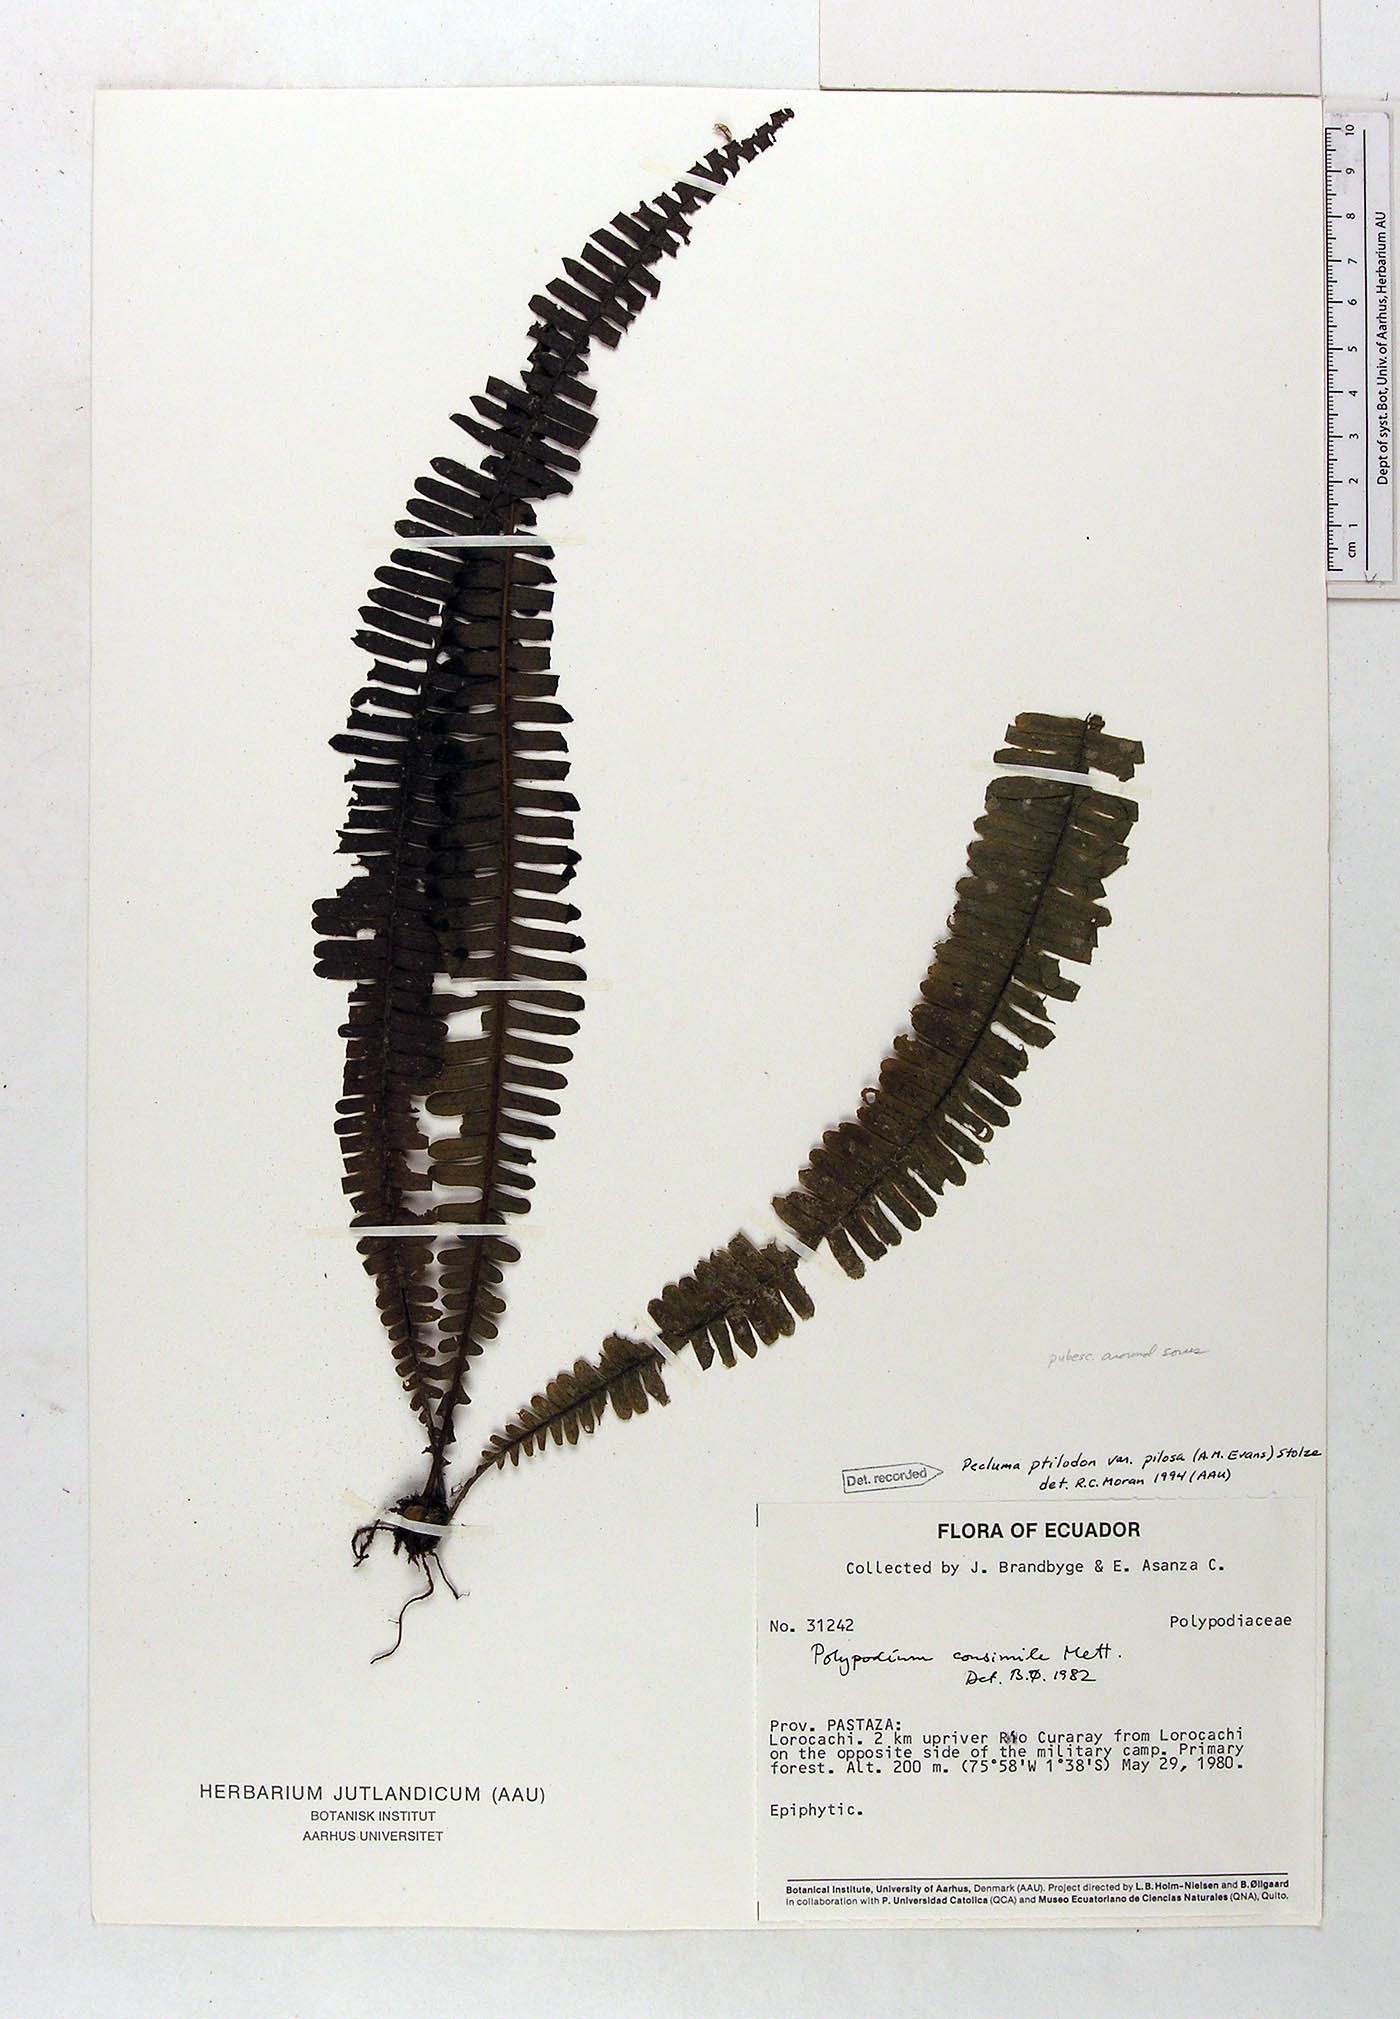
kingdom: Plantae
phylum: Tracheophyta
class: Polypodiopsida
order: Polypodiales
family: Polypodiaceae
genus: Pecluma
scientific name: Pecluma ptilotos
